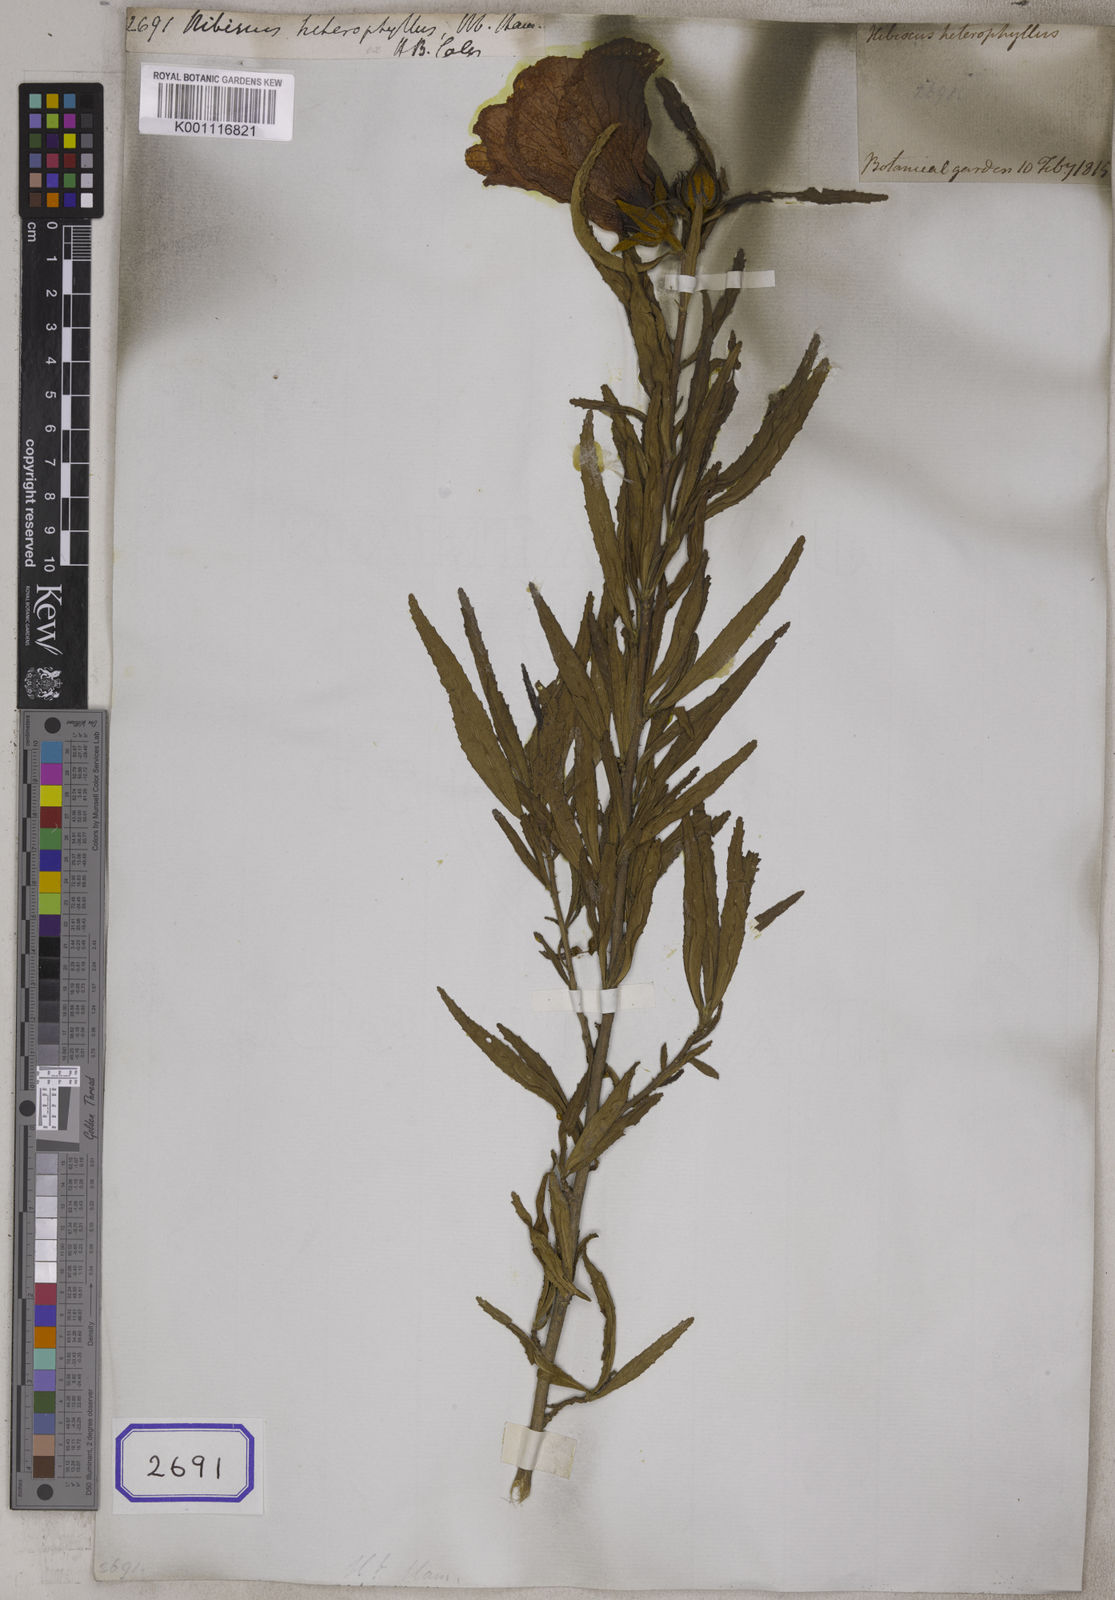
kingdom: Plantae
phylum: Tracheophyta
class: Magnoliopsida
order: Malvales
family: Malvaceae
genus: Hibiscus
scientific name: Hibiscus
